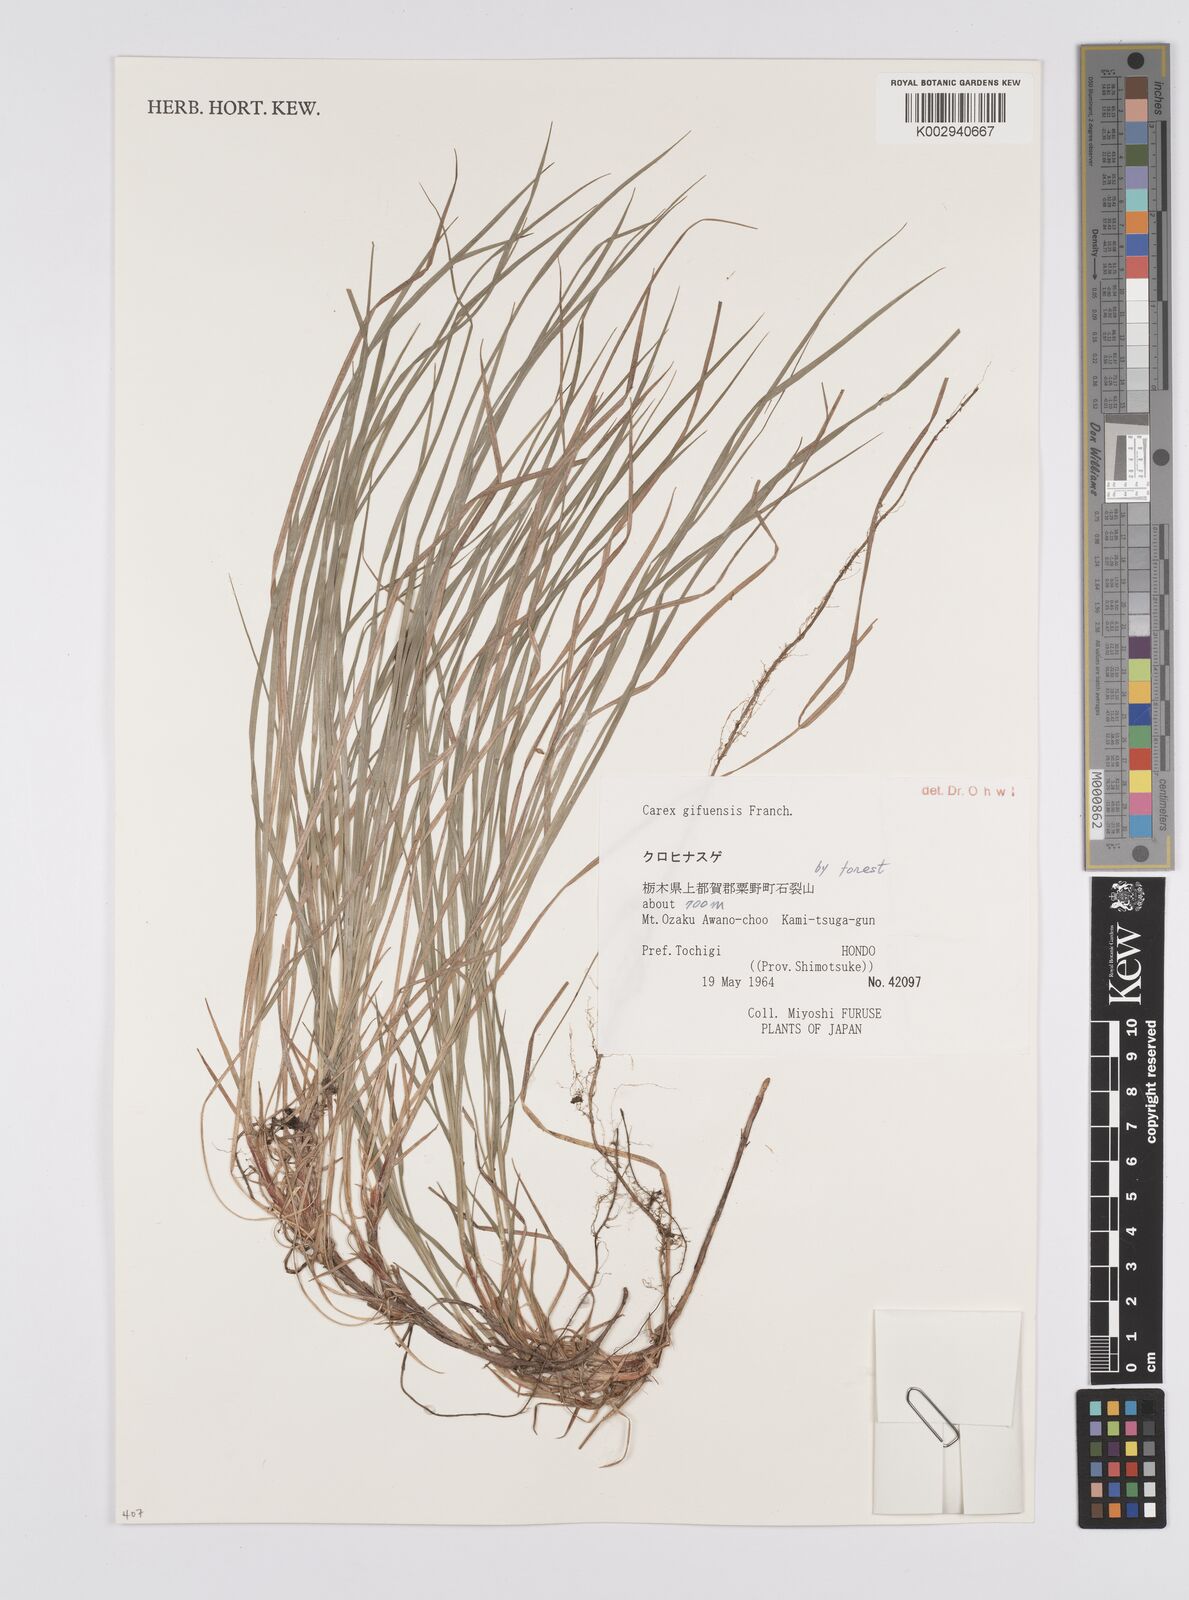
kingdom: Plantae
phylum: Tracheophyta
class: Liliopsida
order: Poales
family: Cyperaceae
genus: Carex
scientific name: Carex gifuensis
